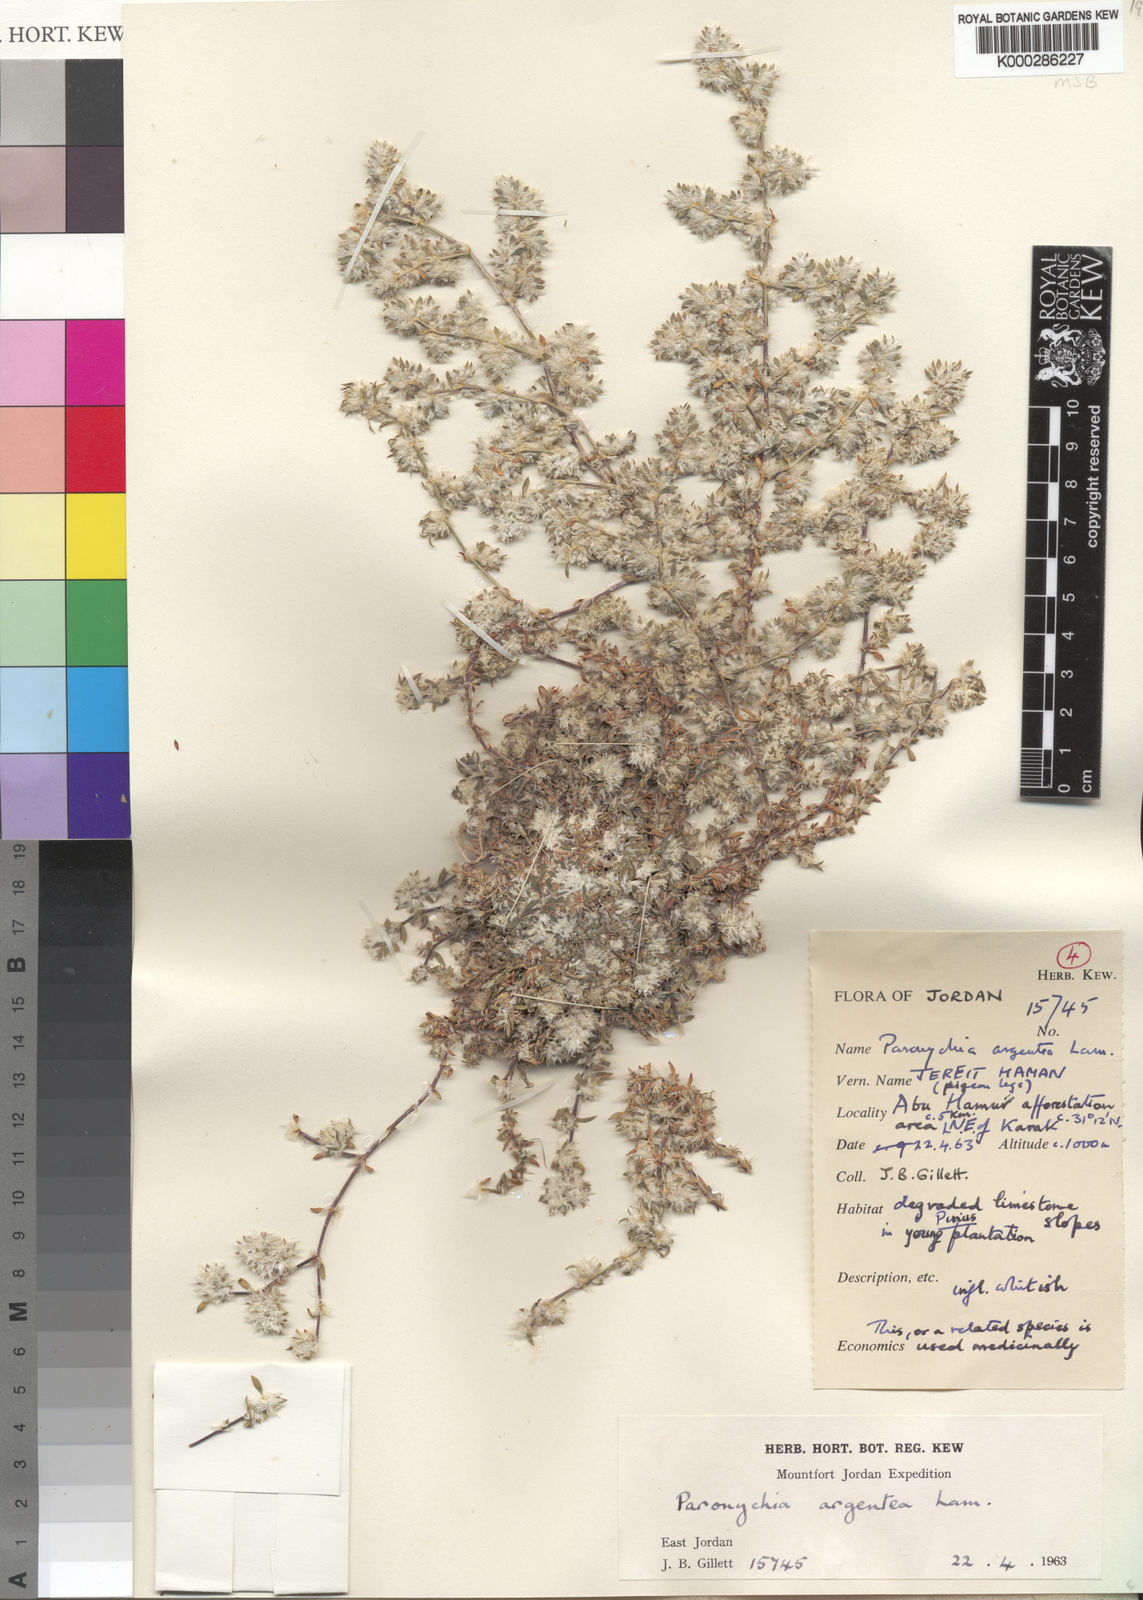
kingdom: Plantae
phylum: Tracheophyta
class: Magnoliopsida
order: Caryophyllales
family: Caryophyllaceae
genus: Paronychia
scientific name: Paronychia argentea
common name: Silver nailroot
